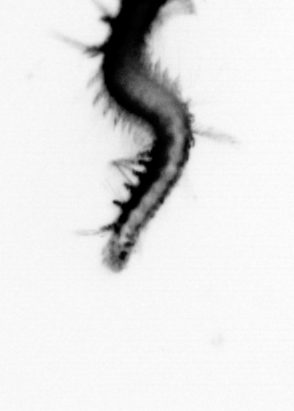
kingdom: Animalia
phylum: Annelida
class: Polychaeta
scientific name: Polychaeta
